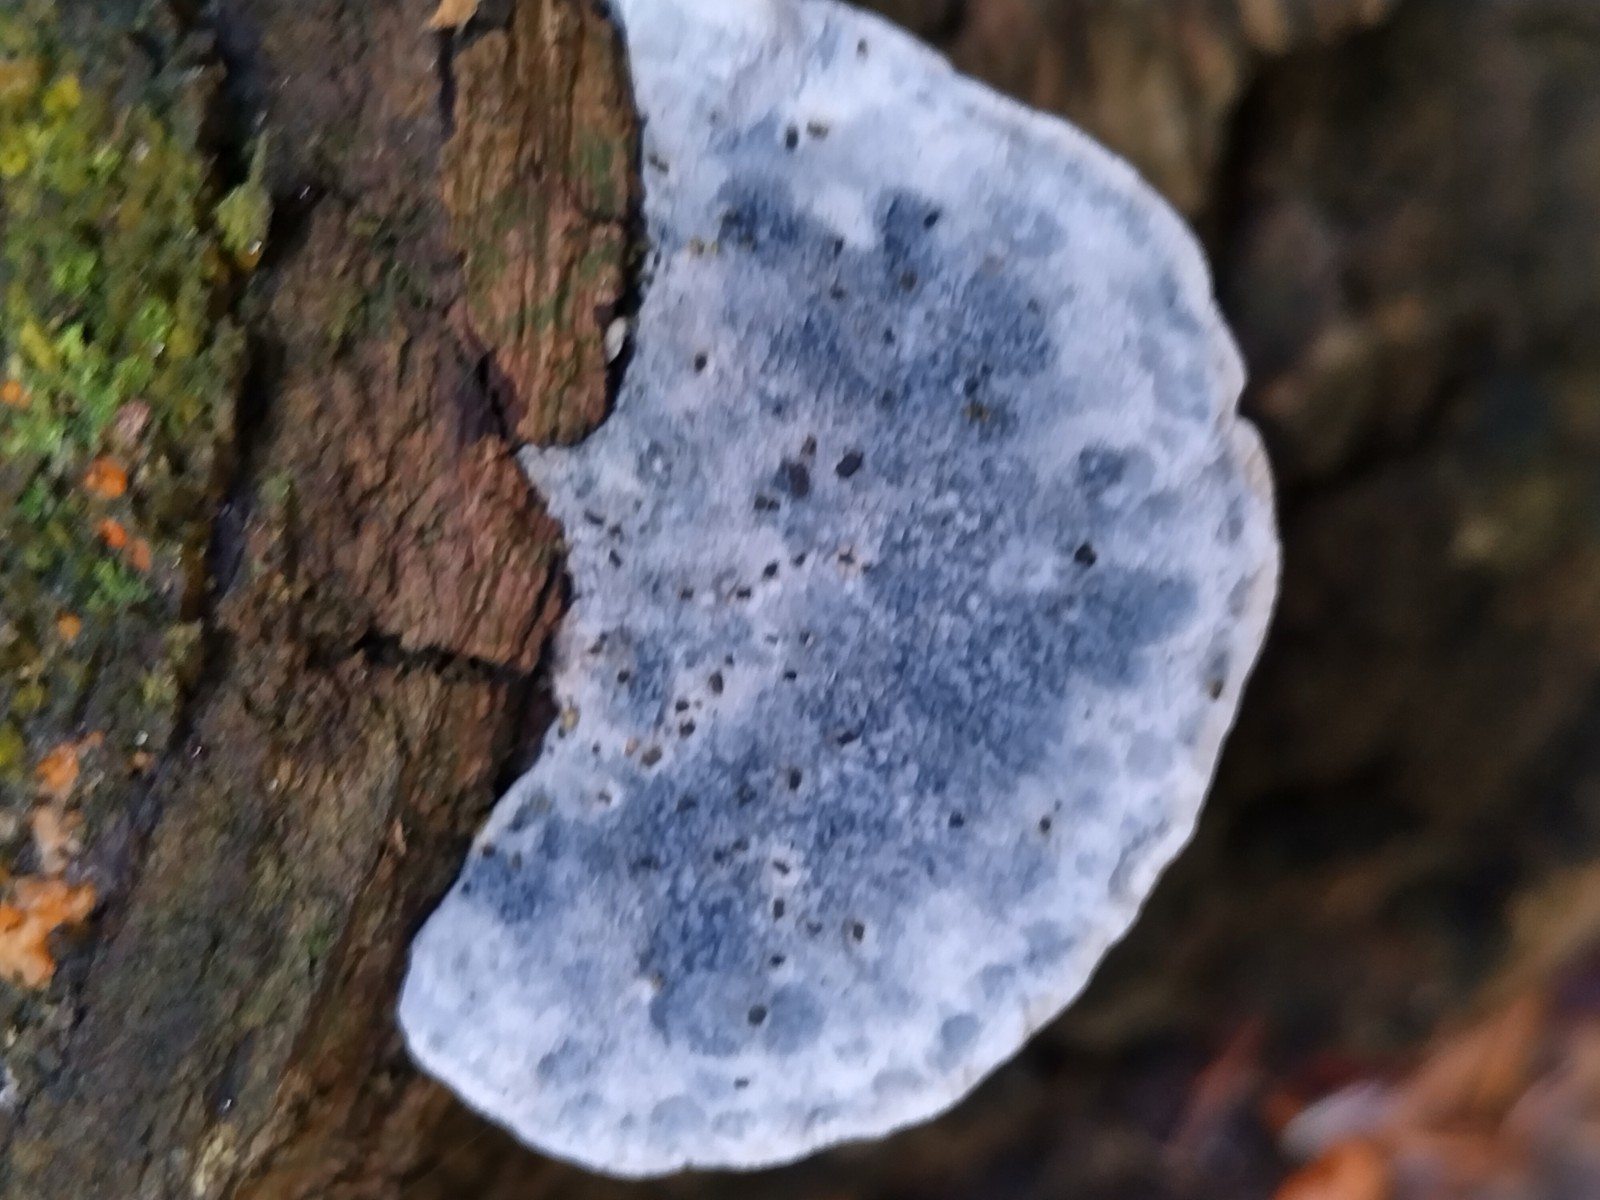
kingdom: Fungi
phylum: Basidiomycota
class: Agaricomycetes
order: Polyporales
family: Polyporaceae
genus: Cyanosporus
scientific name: Cyanosporus caesius
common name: blålig kødporesvamp
